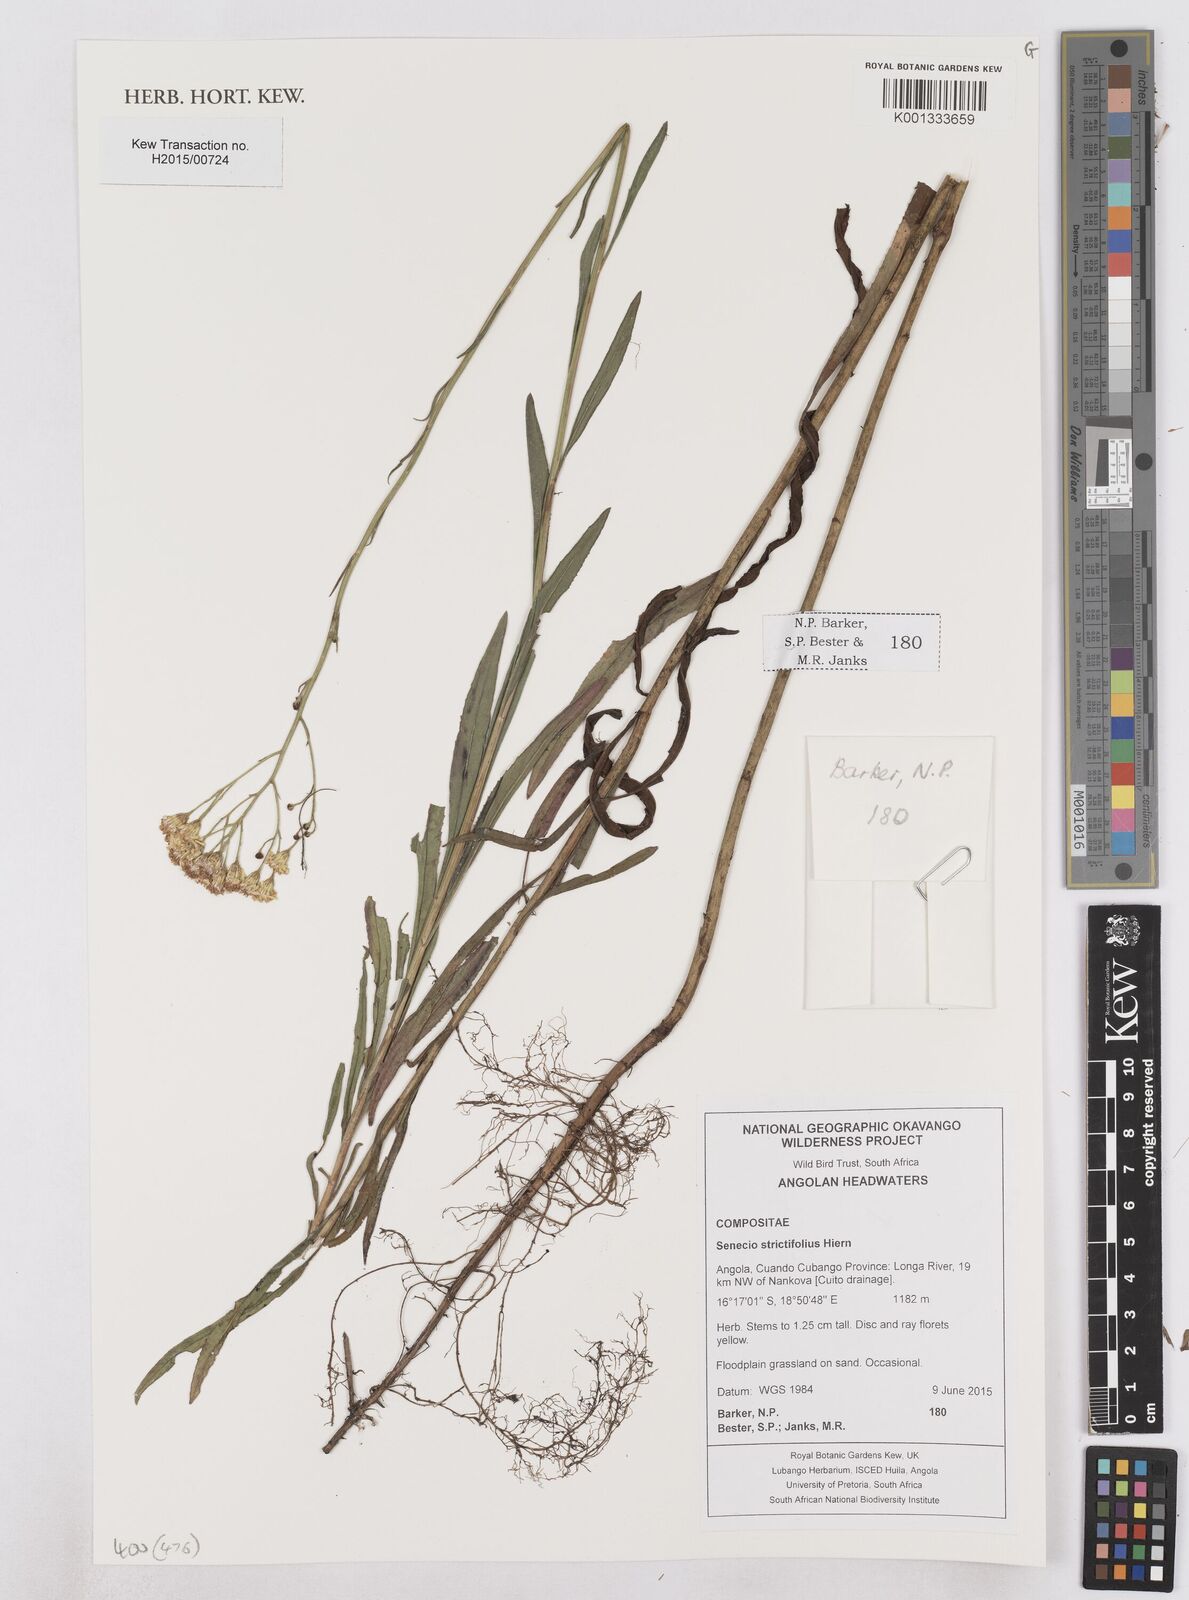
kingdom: Plantae
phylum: Tracheophyta
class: Magnoliopsida
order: Asterales
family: Asteraceae
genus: Senecio
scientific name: Senecio strictifolius
